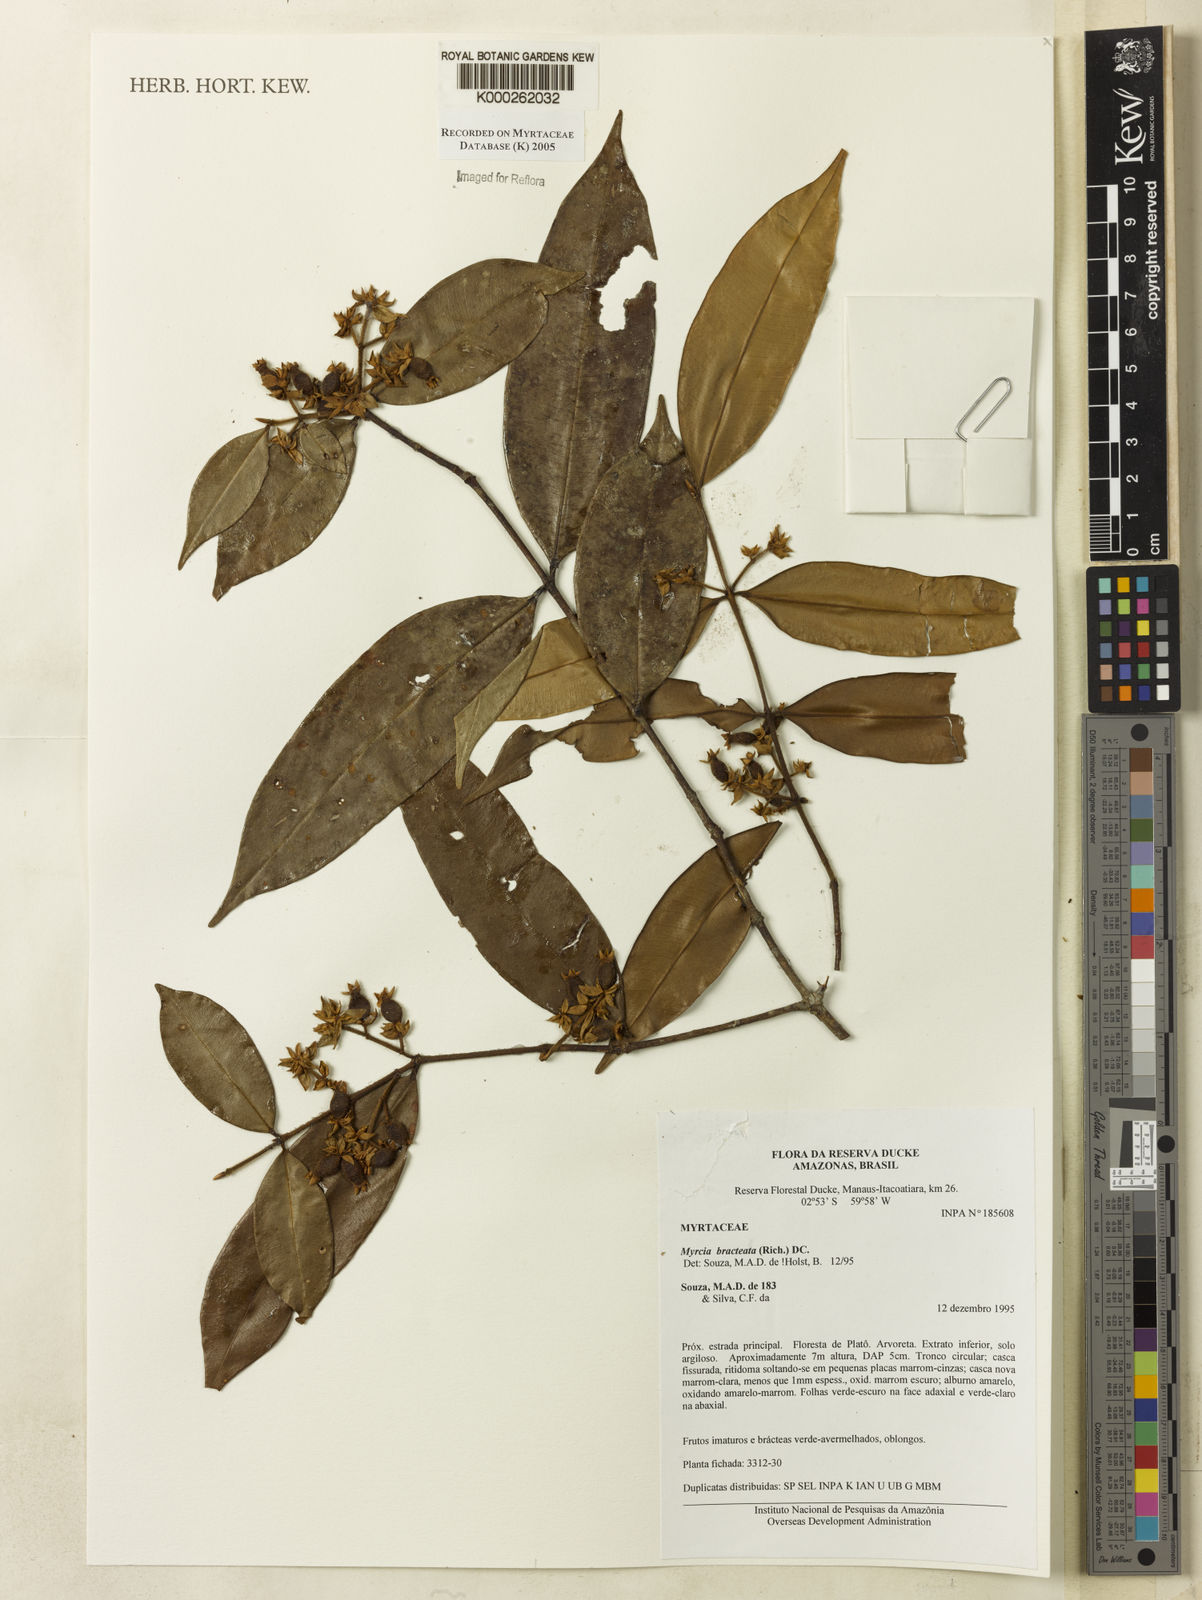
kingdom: Plantae
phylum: Tracheophyta
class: Magnoliopsida
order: Myrtales
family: Myrtaceae
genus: Myrcia
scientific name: Myrcia bracteata
